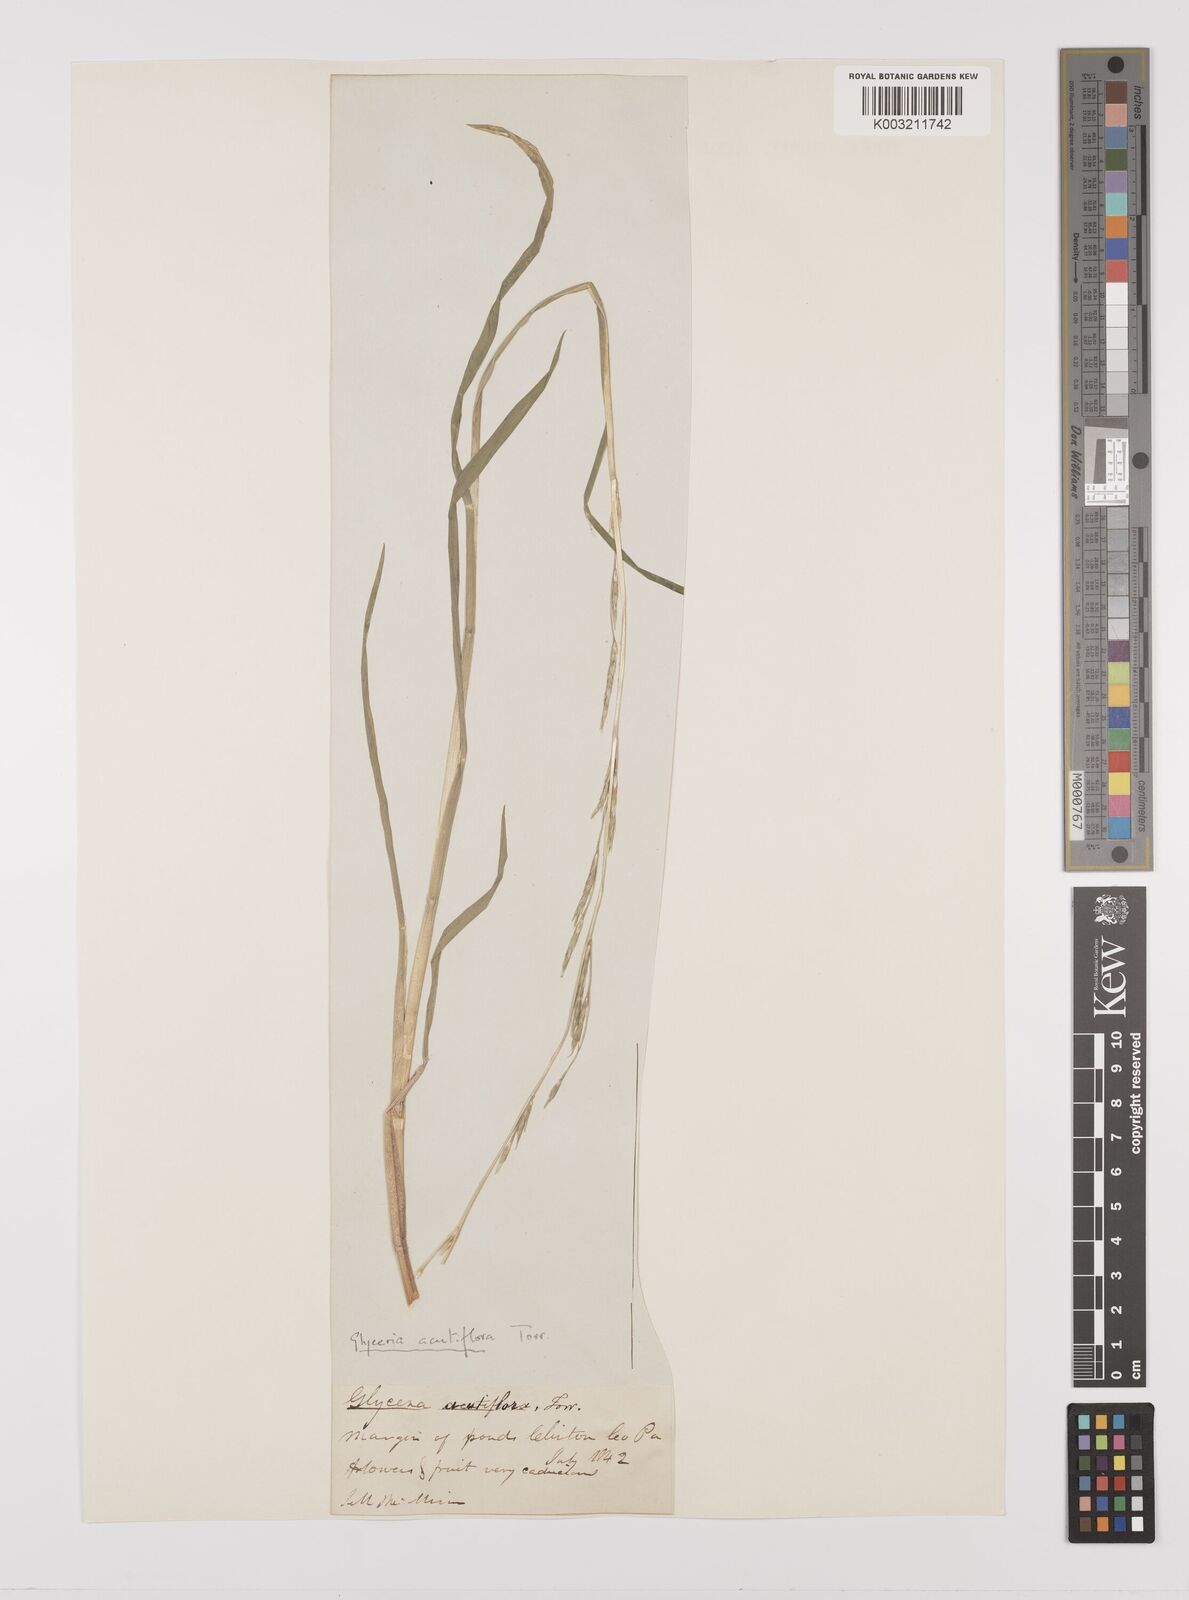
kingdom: Plantae
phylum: Tracheophyta
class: Liliopsida
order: Poales
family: Poaceae
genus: Glyceria
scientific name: Glyceria acutiflora
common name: Sharp-glumed manna-grass
